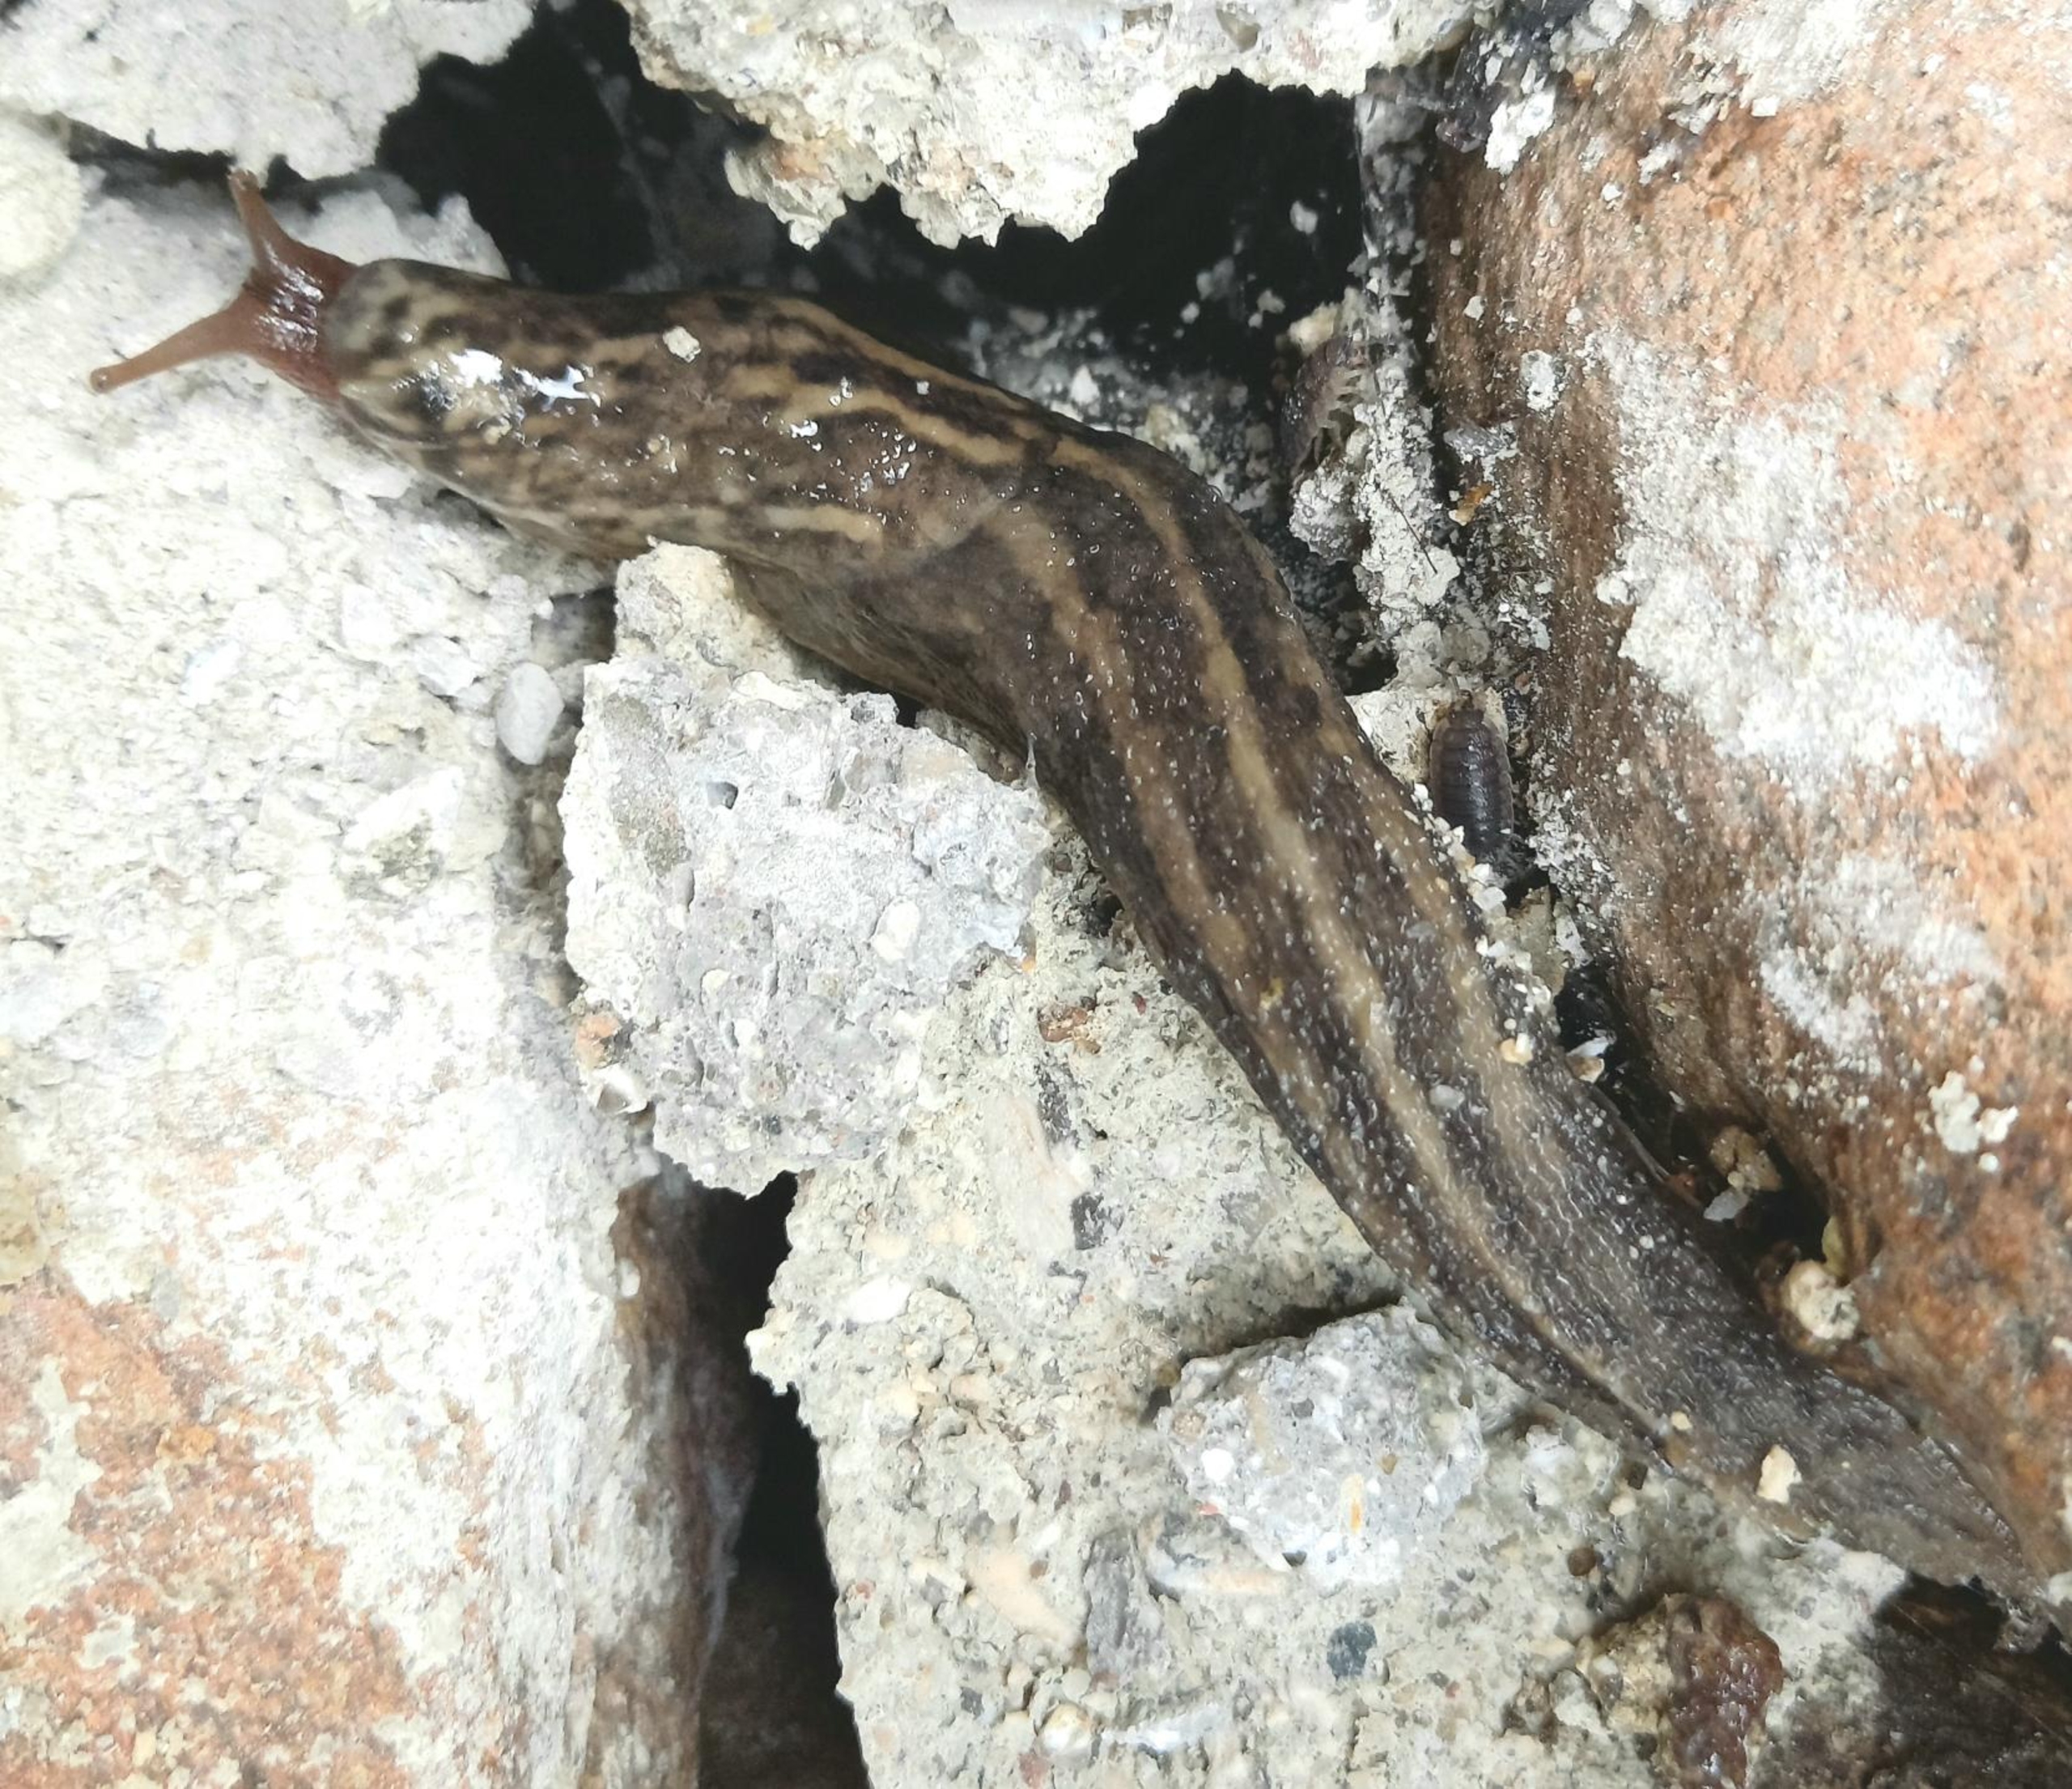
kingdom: Animalia
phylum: Mollusca
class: Gastropoda
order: Stylommatophora
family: Limacidae
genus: Limax
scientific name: Limax maximus
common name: Pantersnegl
